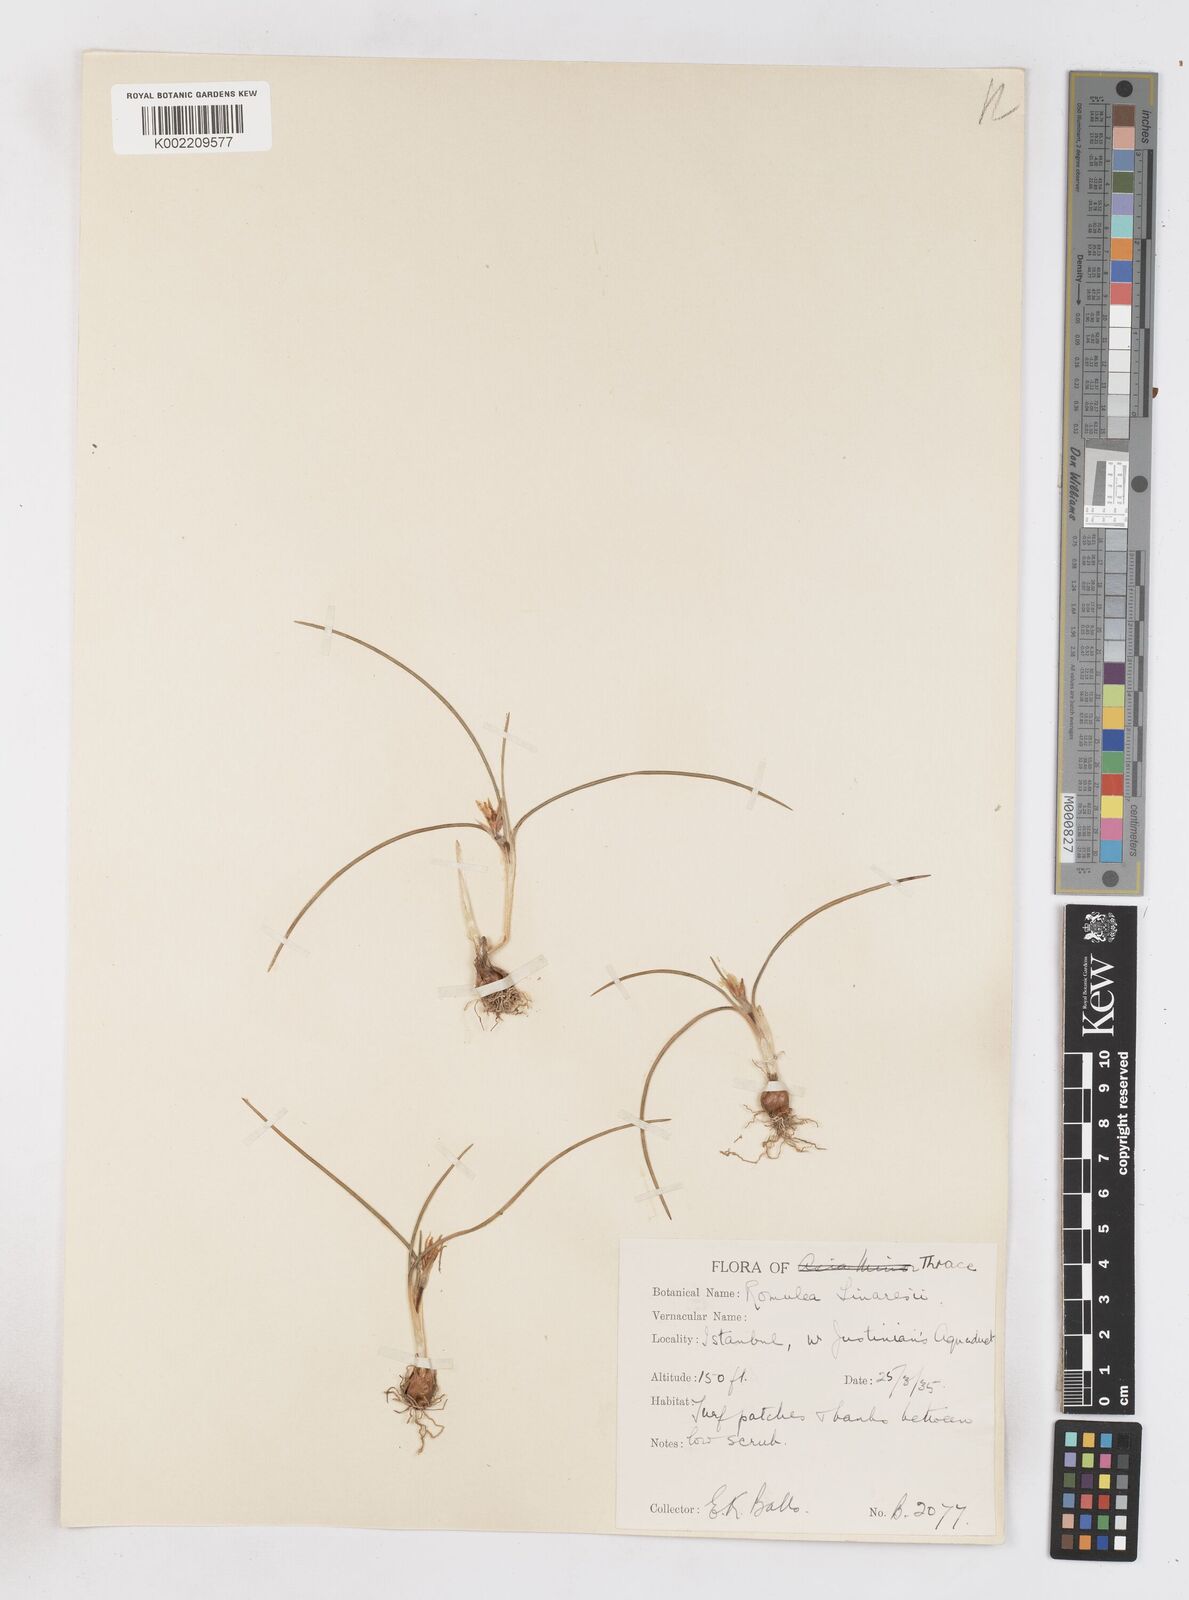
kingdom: Plantae
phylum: Tracheophyta
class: Liliopsida
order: Asparagales
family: Iridaceae
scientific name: Iridaceae
